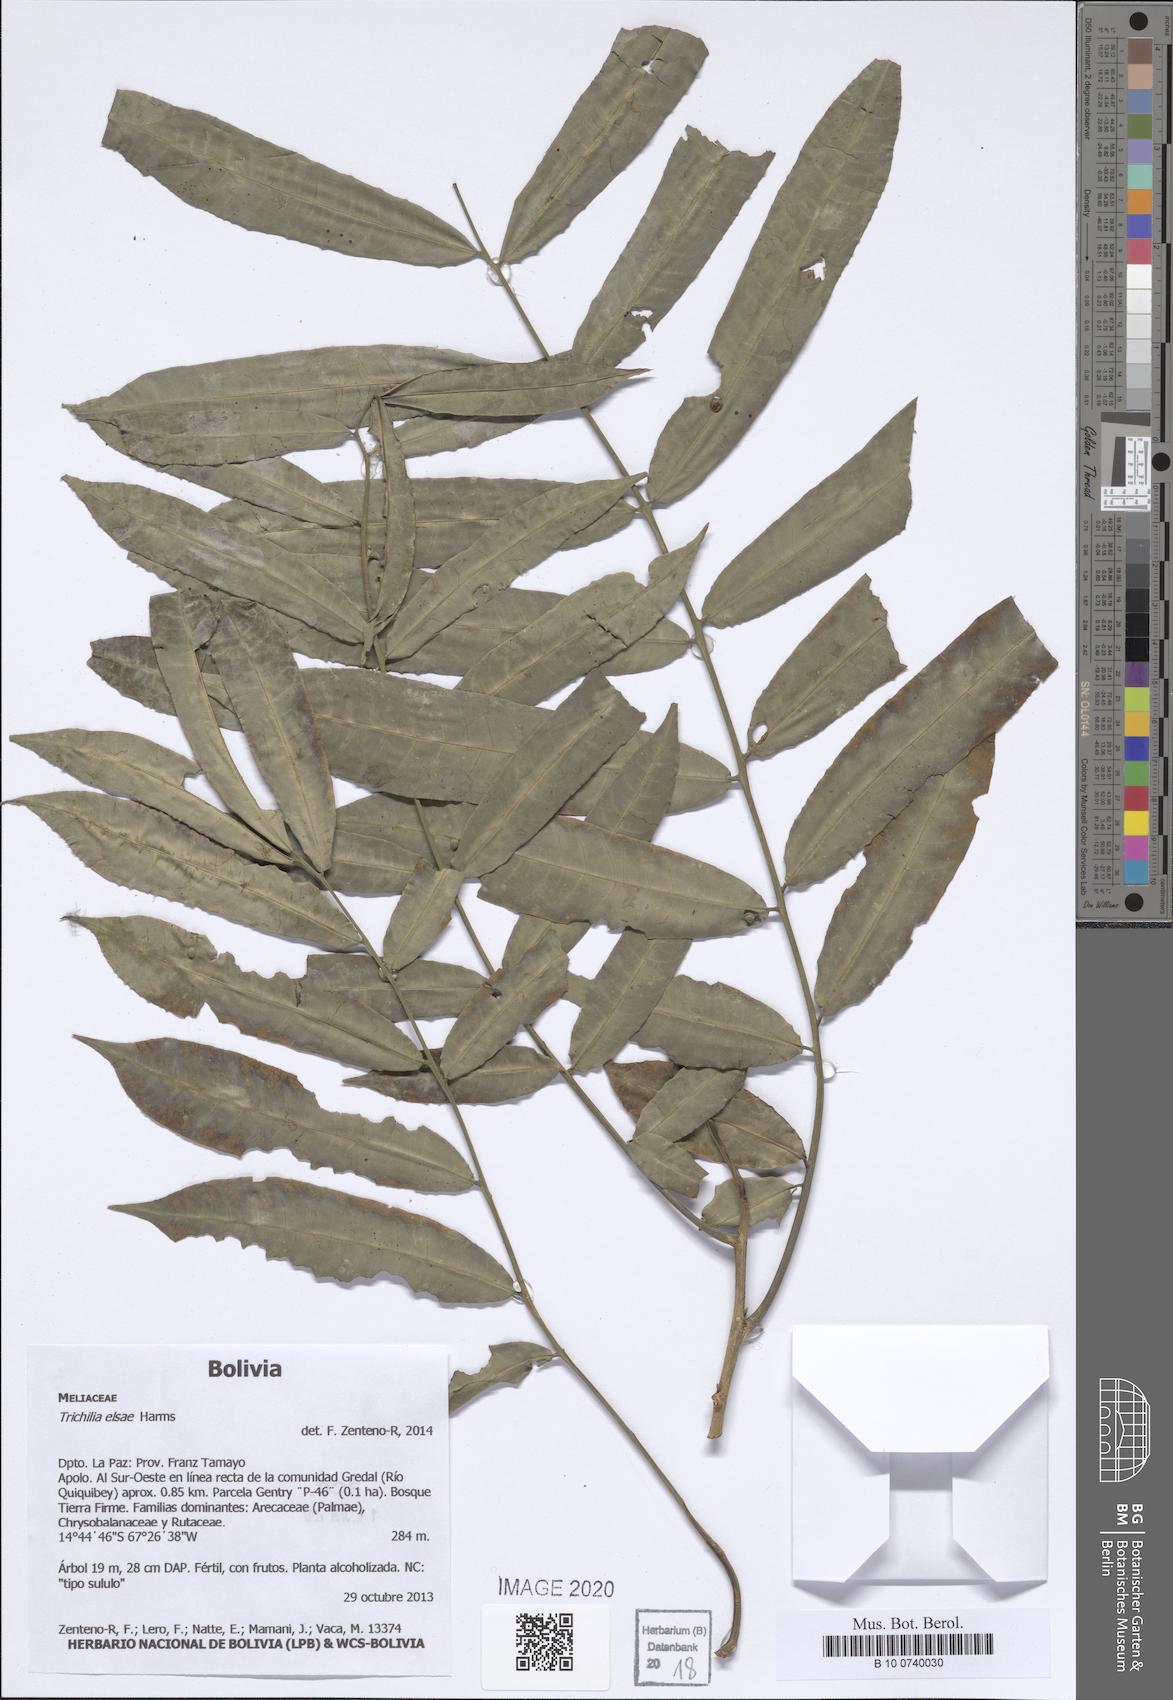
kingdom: Plantae
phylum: Tracheophyta
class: Magnoliopsida
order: Sapindales
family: Meliaceae
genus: Trichilia
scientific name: Trichilia elsae
